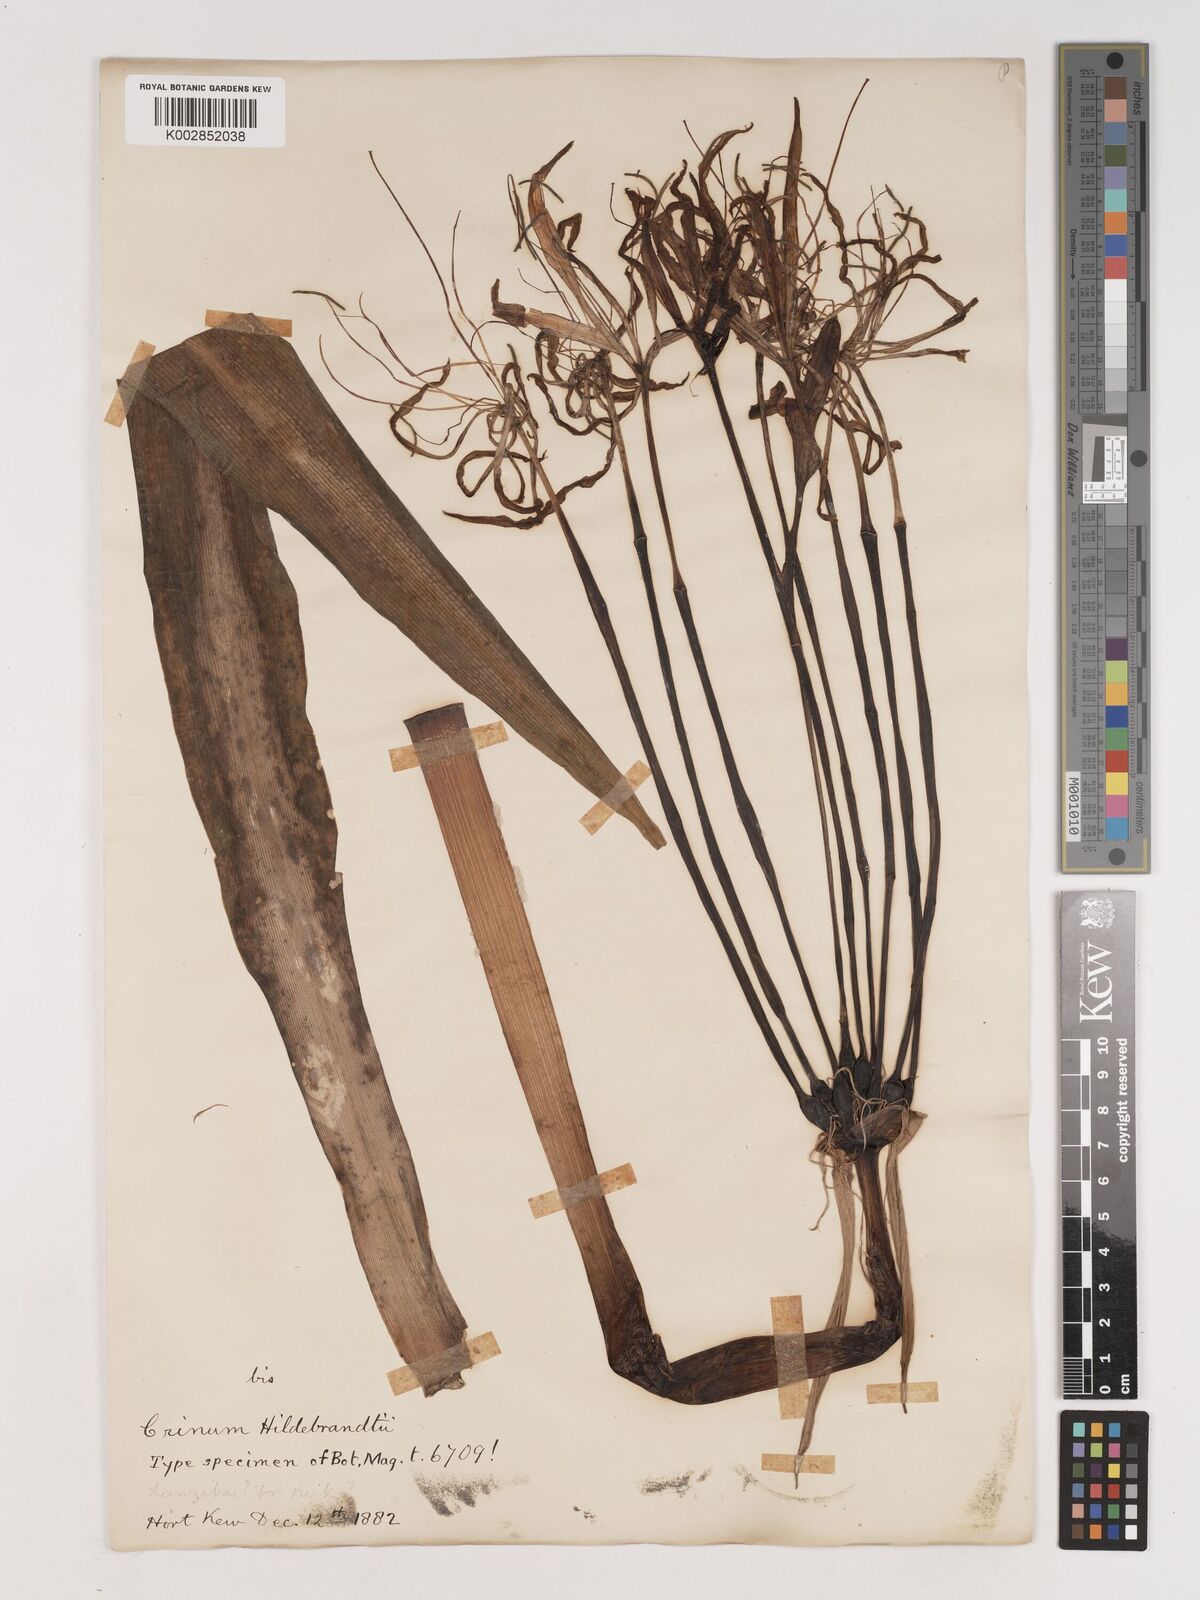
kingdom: Plantae
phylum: Tracheophyta
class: Liliopsida
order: Asparagales
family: Amaryllidaceae
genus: Crinum
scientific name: Crinum hildebrandtii
